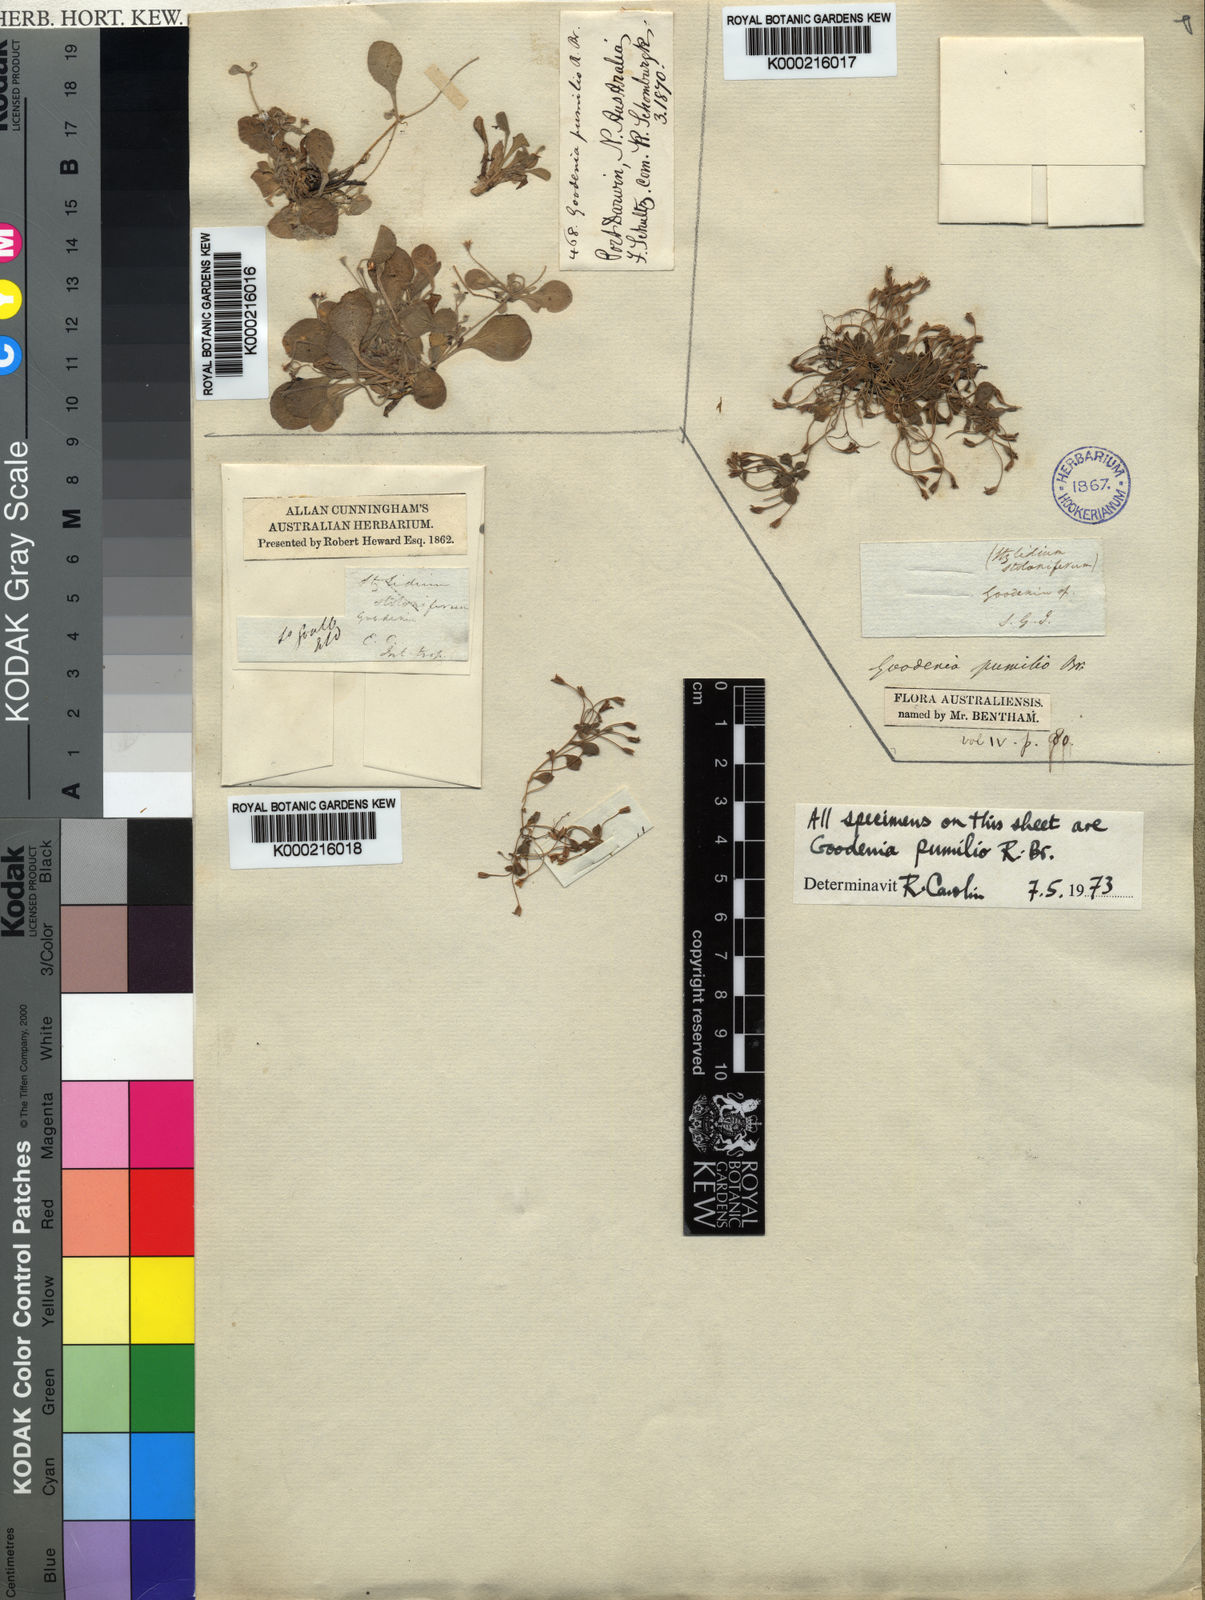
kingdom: Plantae
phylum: Tracheophyta
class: Magnoliopsida
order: Asterales
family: Goodeniaceae
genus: Goodenia
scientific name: Goodenia pumilio
